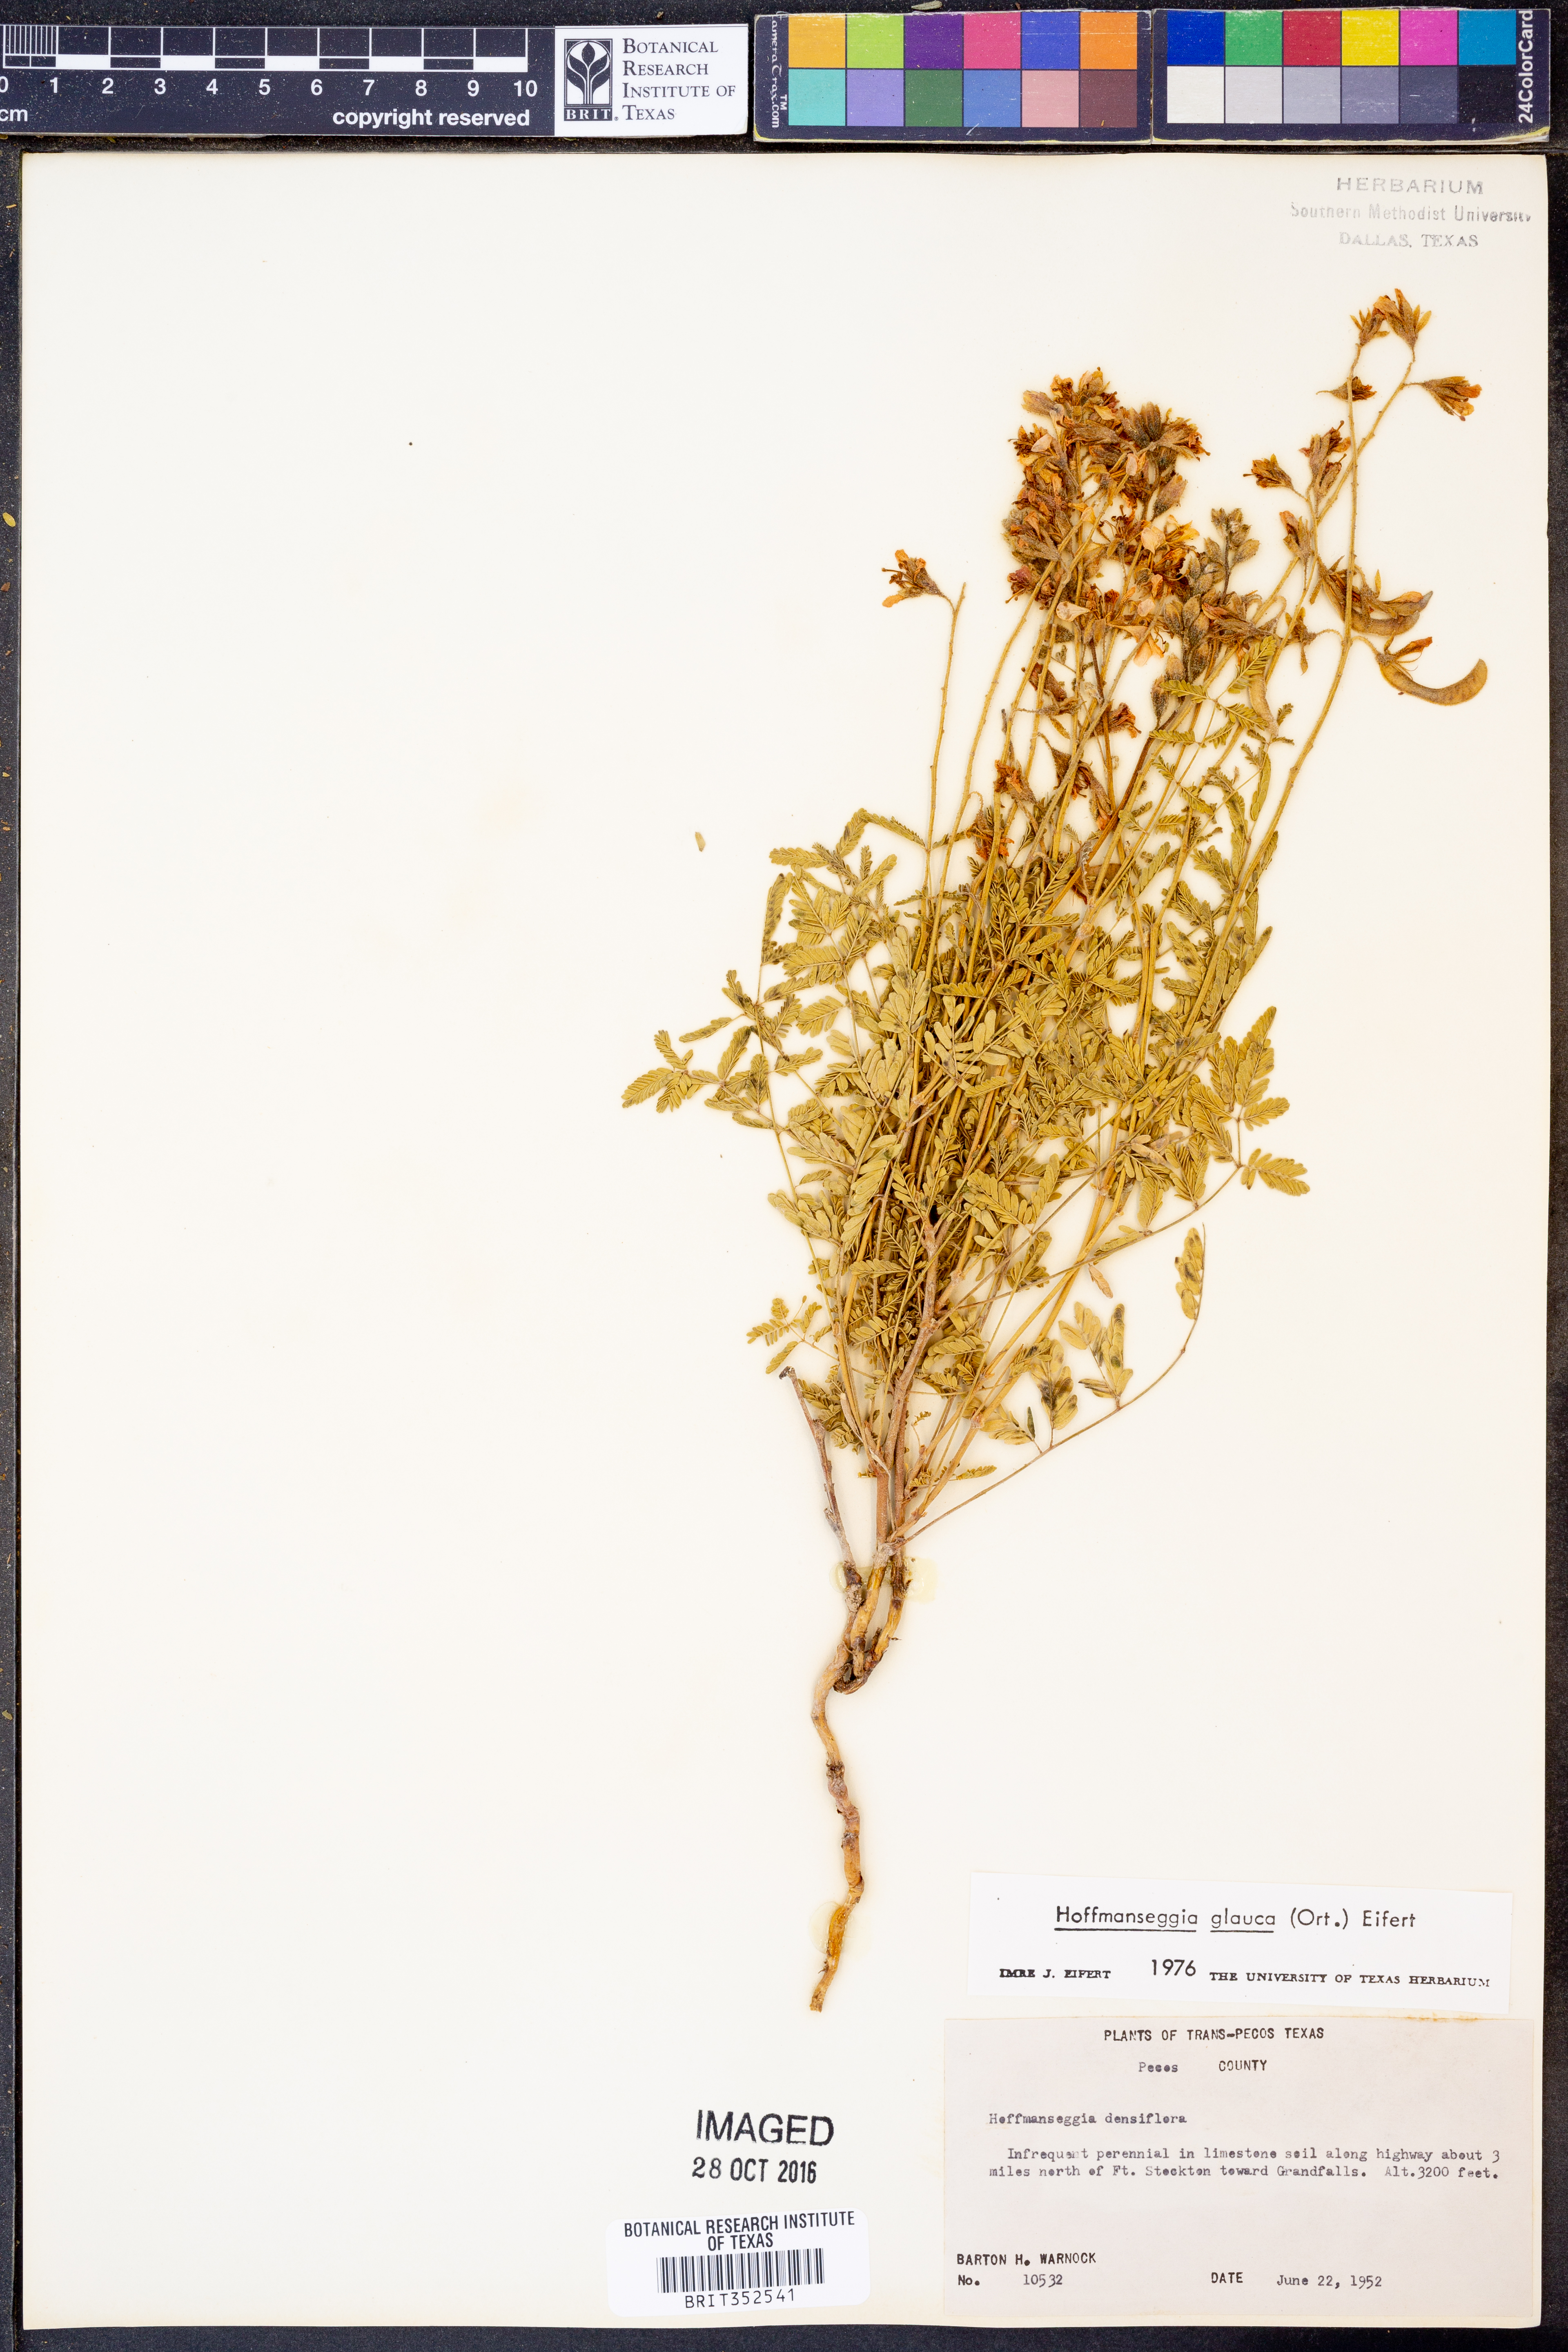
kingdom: Plantae
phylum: Tracheophyta
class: Magnoliopsida
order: Fabales
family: Fabaceae
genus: Hoffmannseggia
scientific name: Hoffmannseggia glauca
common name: Pignut
